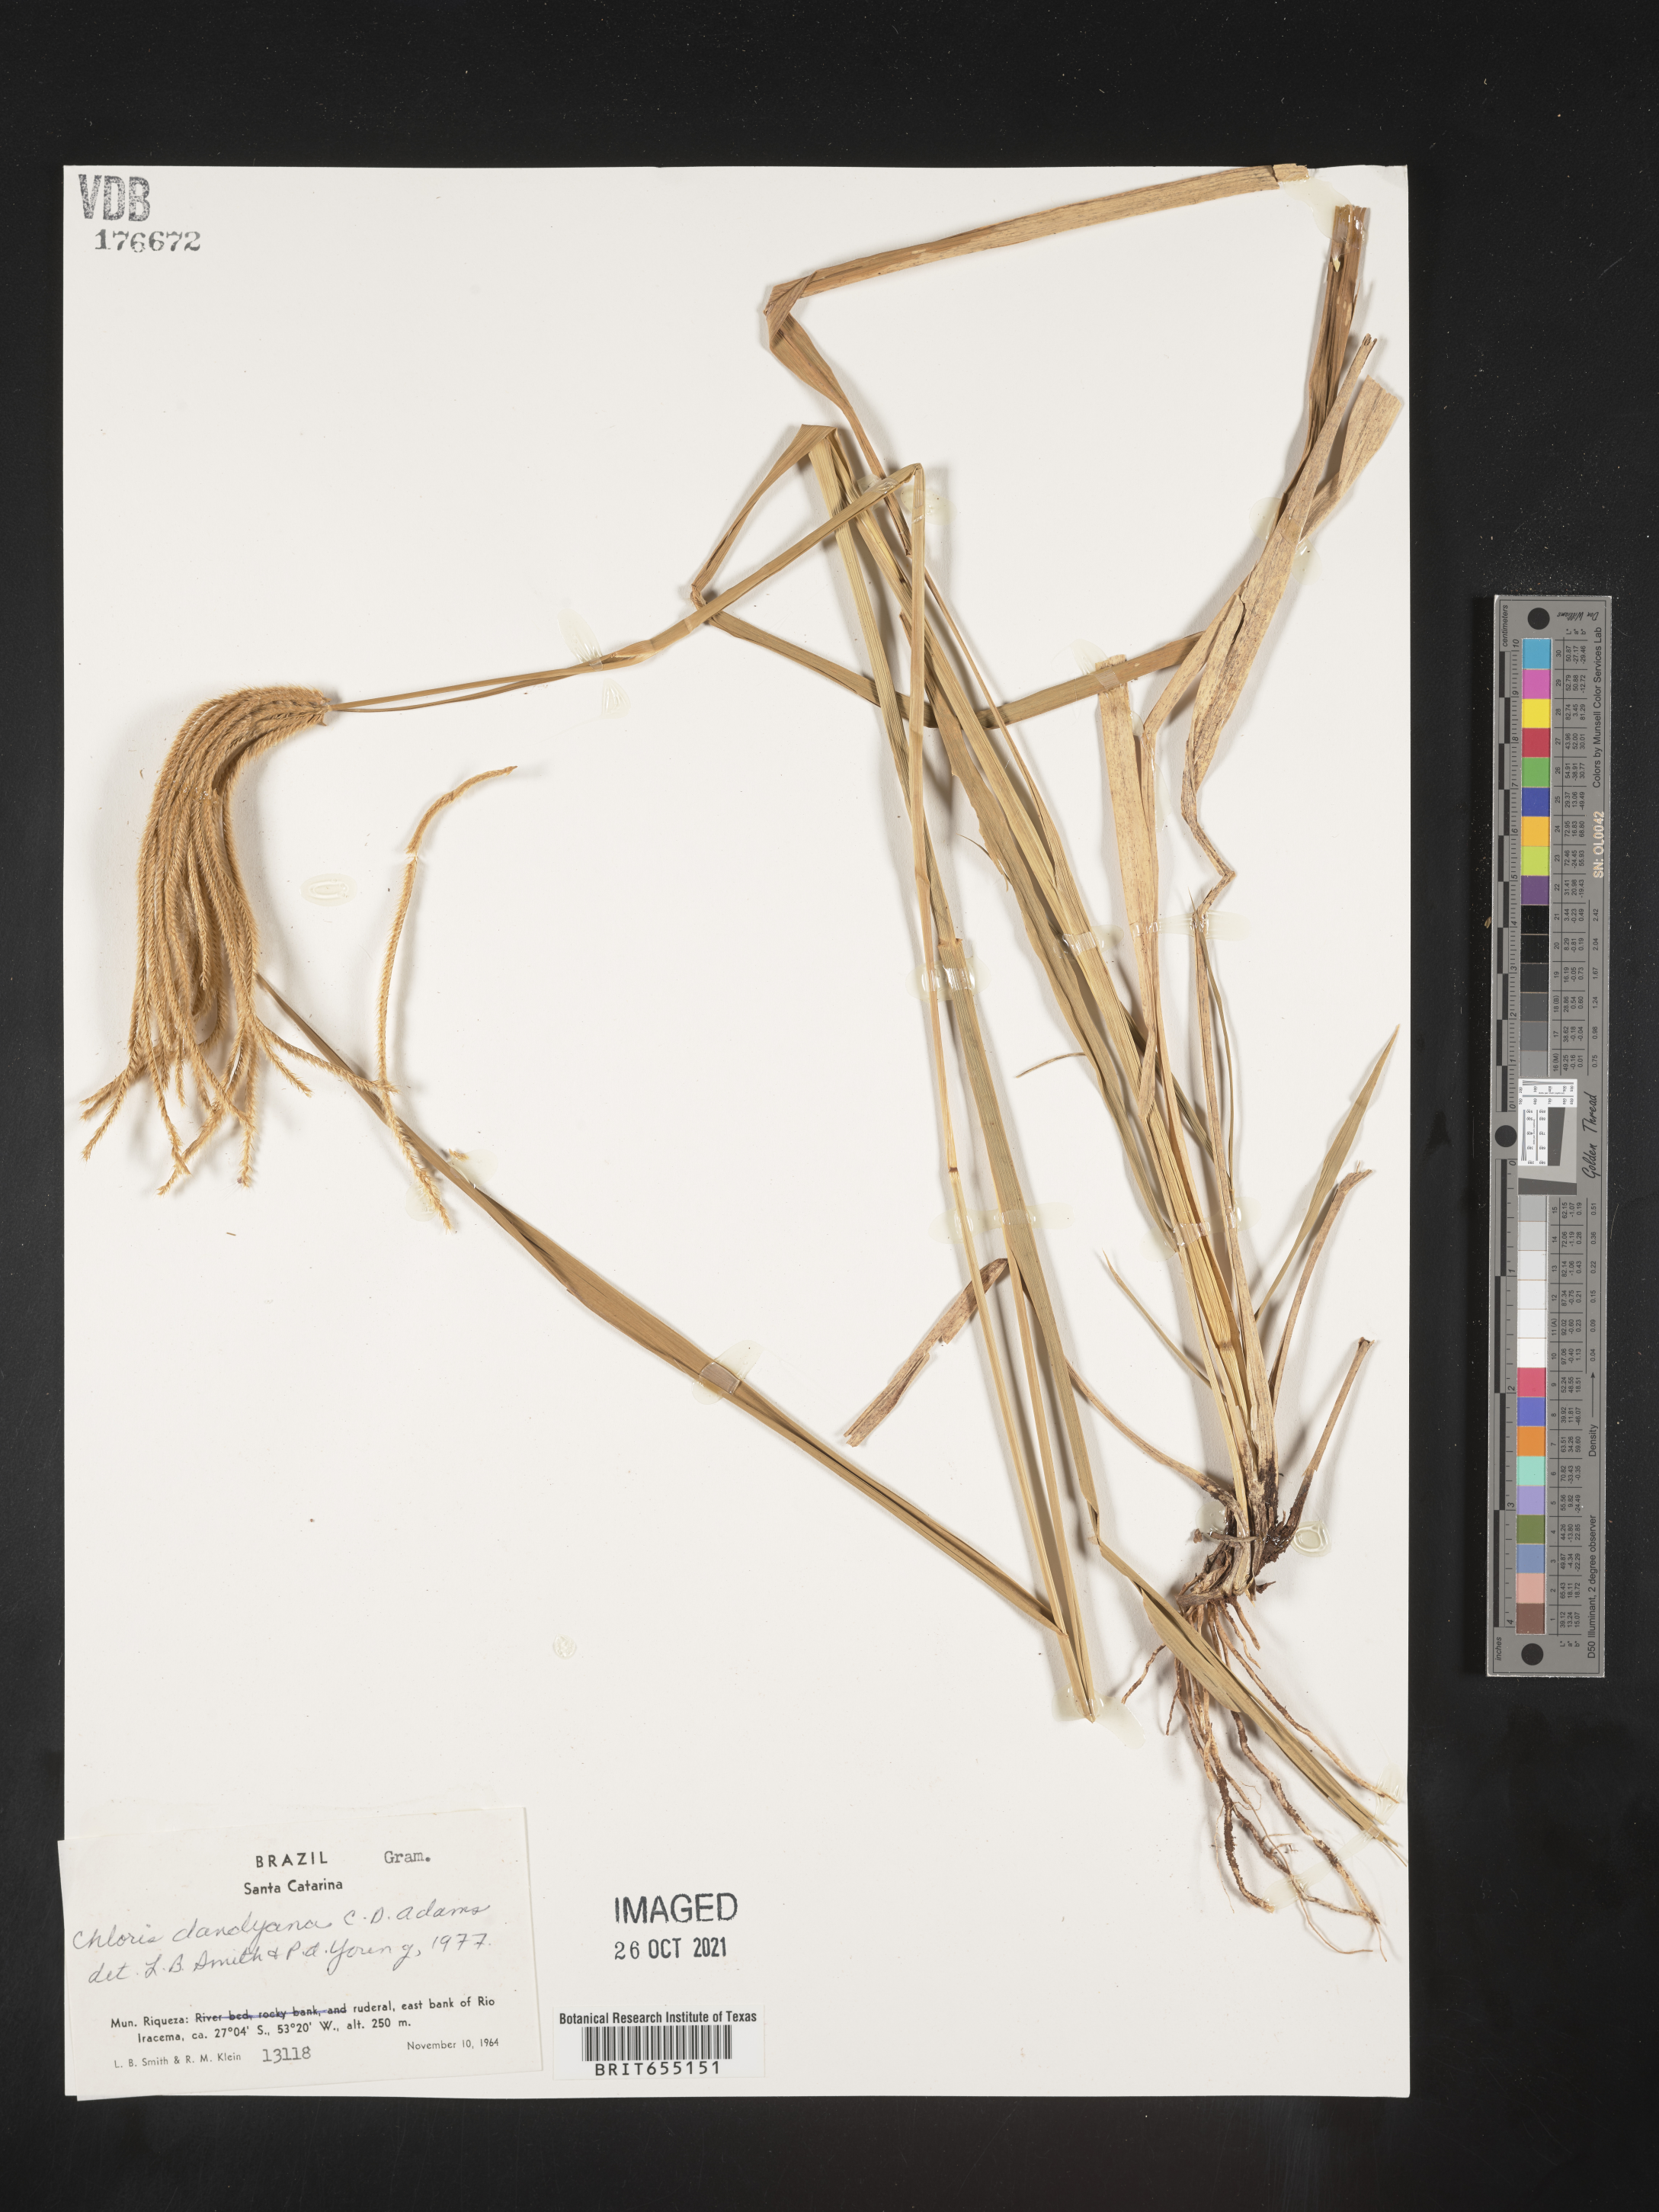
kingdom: Plantae
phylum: Tracheophyta
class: Liliopsida
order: Poales
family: Poaceae
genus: Chloris
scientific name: Chloris
